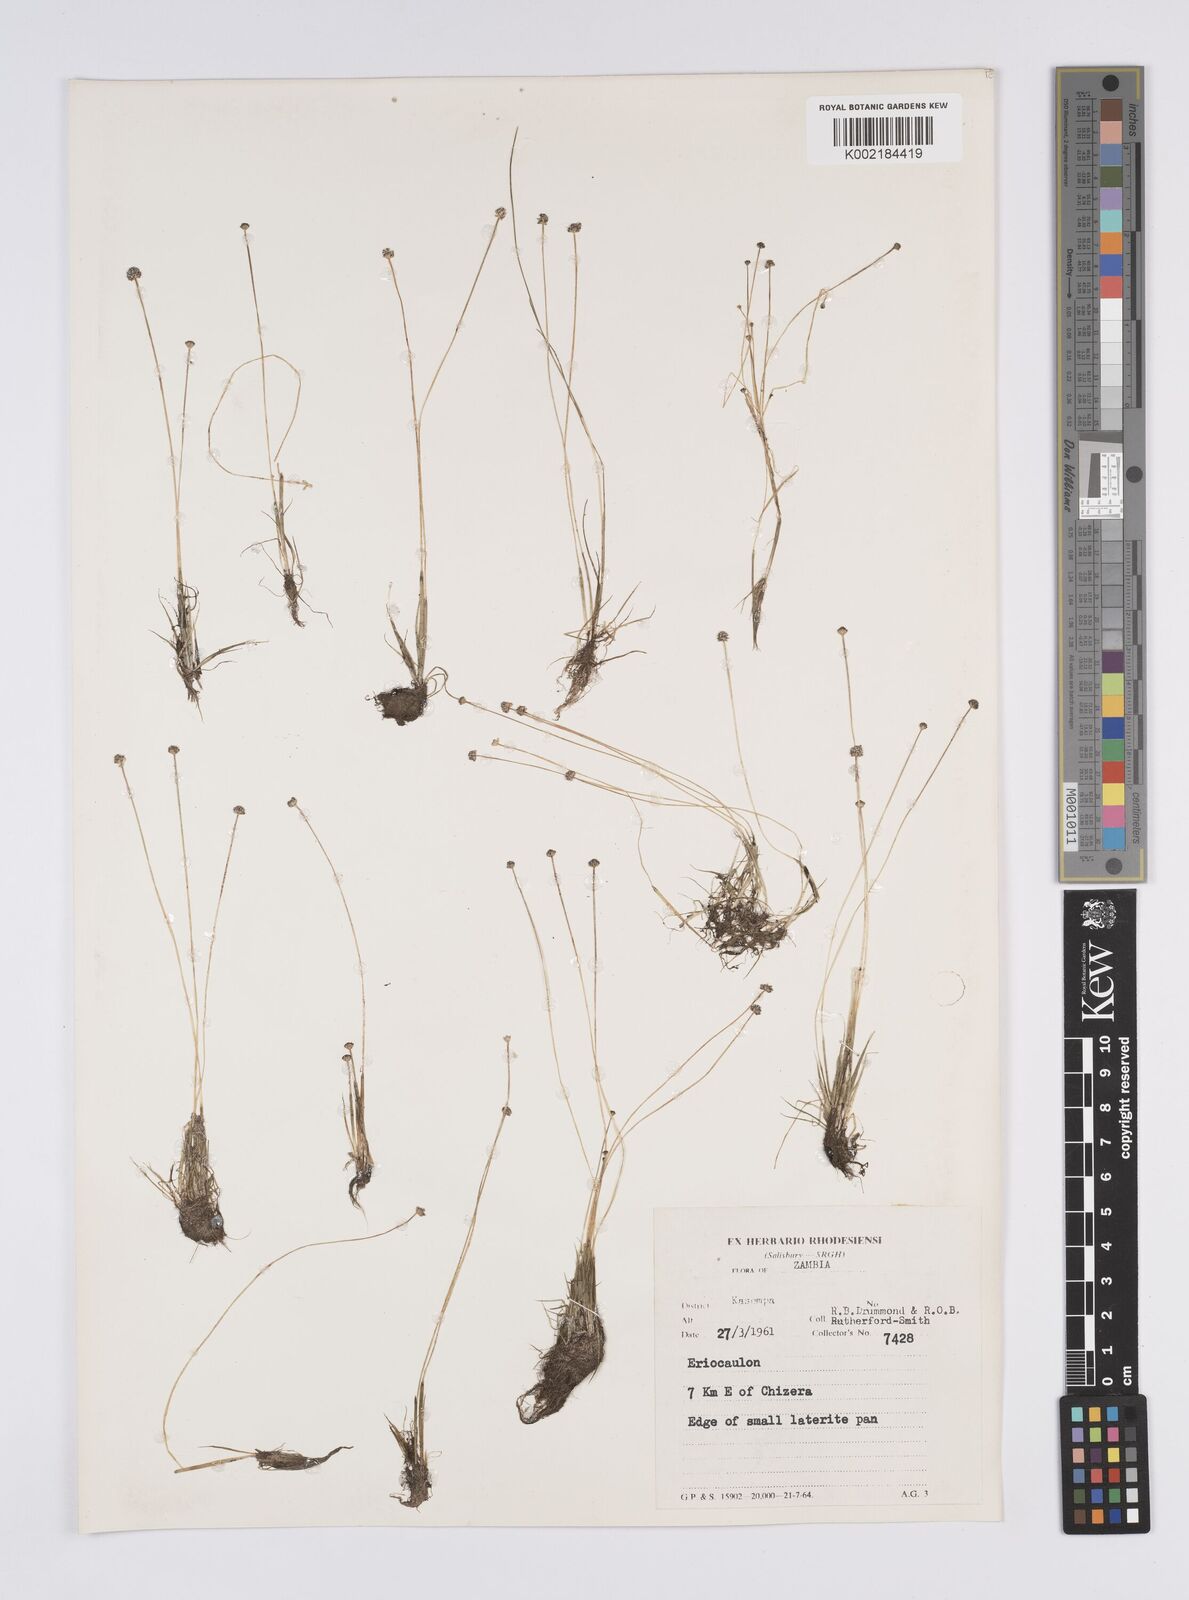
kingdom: Plantae
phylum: Tracheophyta
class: Liliopsida
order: Poales
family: Eriocaulaceae
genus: Eriocaulon
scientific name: Eriocaulon
